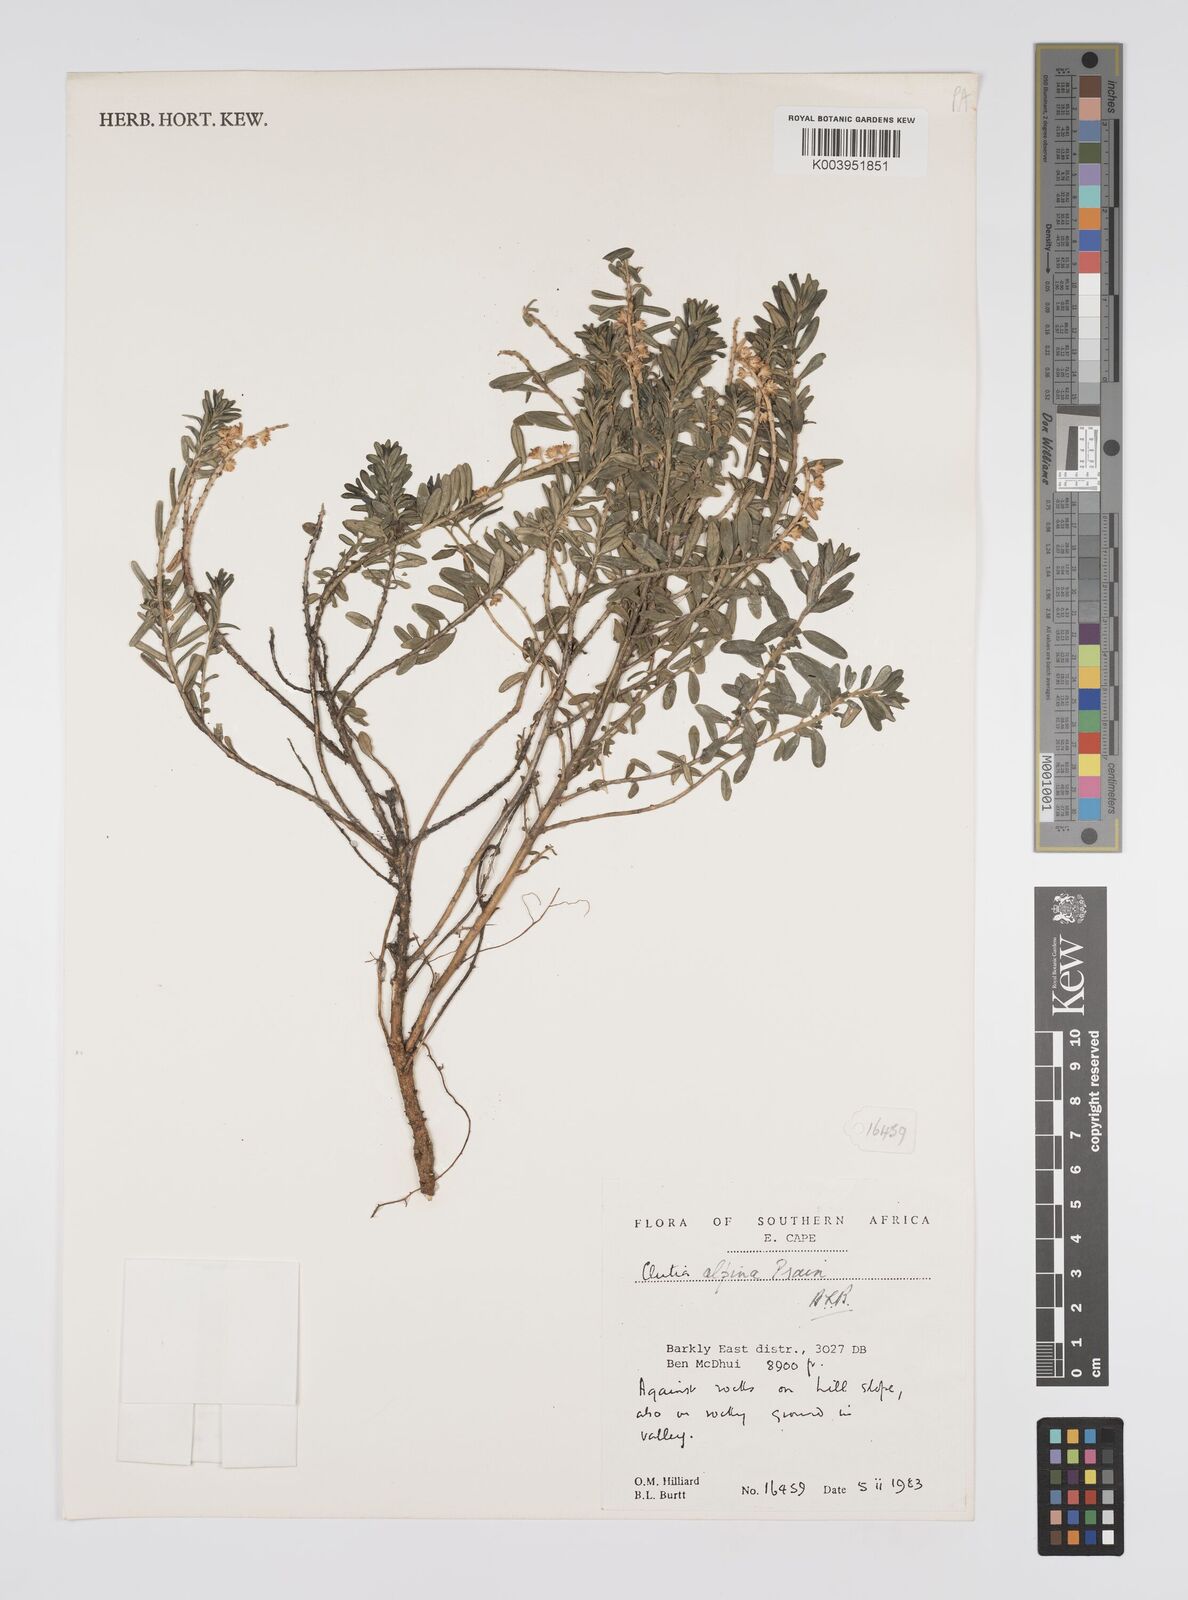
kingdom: Plantae
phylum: Tracheophyta
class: Magnoliopsida
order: Malpighiales
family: Peraceae
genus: Clutia
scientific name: Clutia alpina
